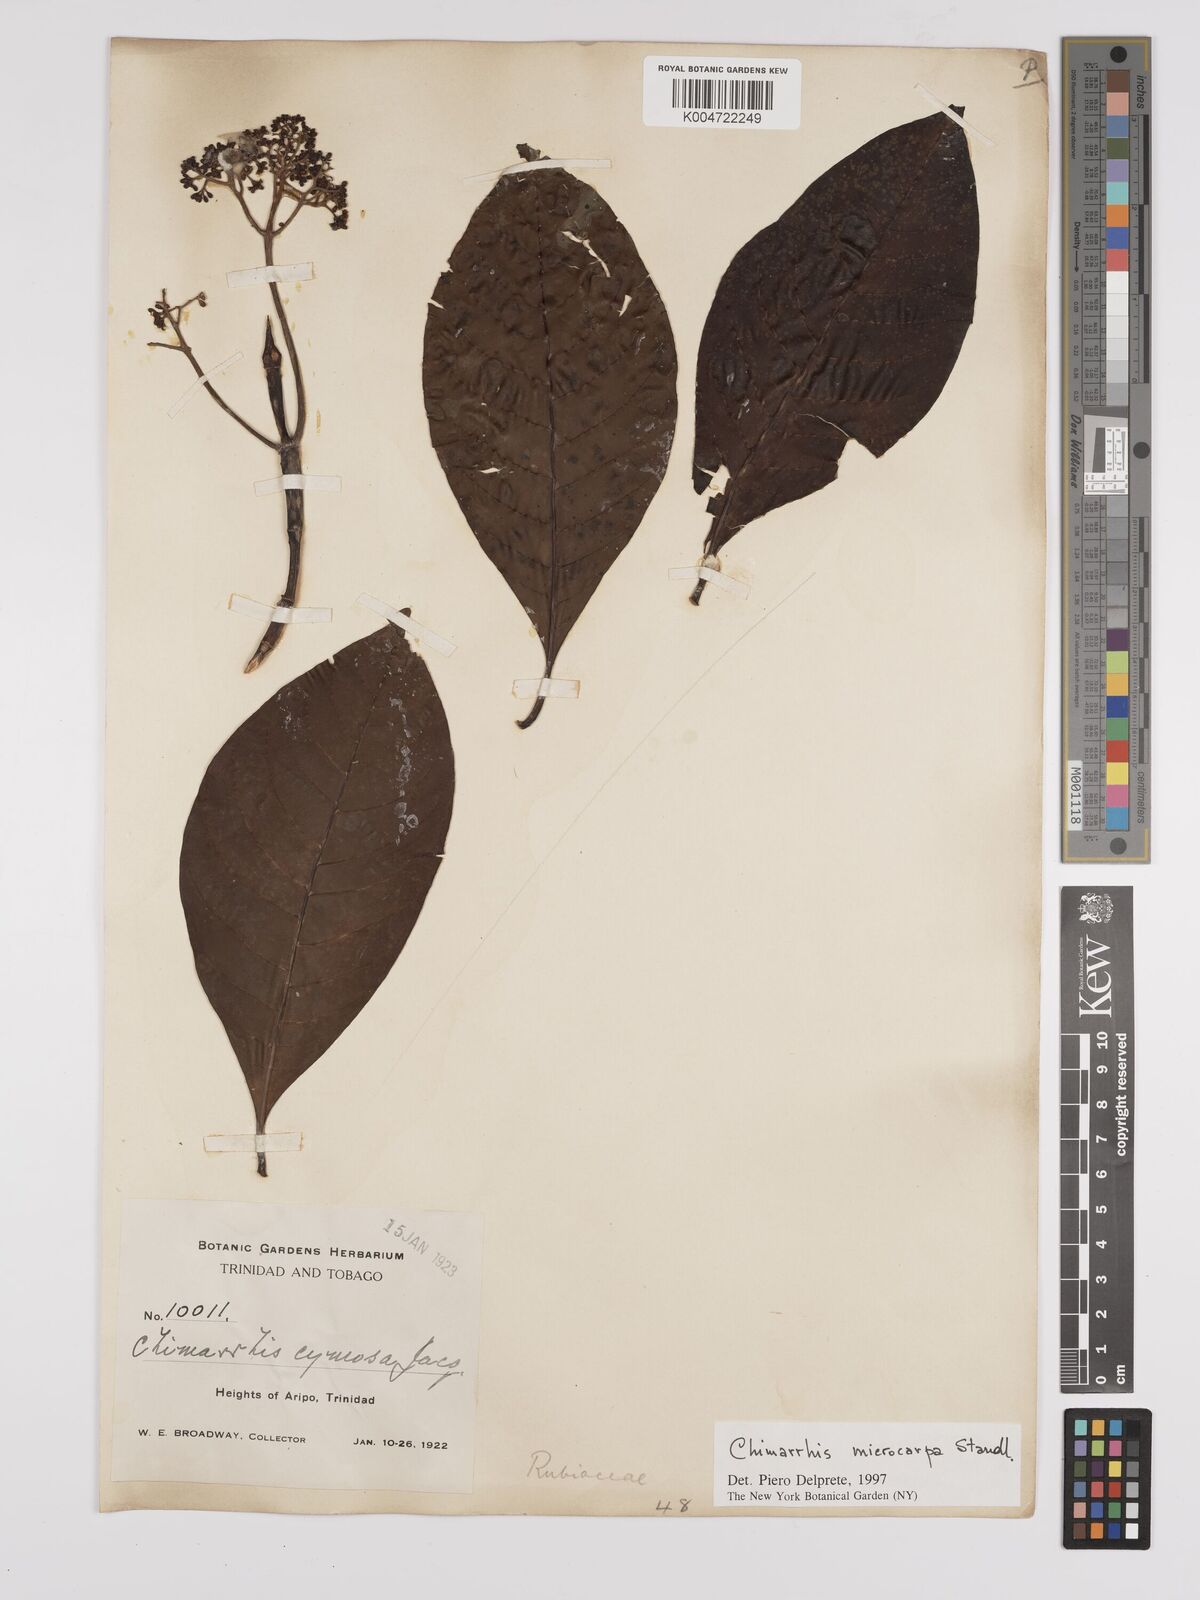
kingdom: Plantae
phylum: Tracheophyta
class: Magnoliopsida
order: Gentianales
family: Rubiaceae
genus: Chimarrhis
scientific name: Chimarrhis microcarpa
